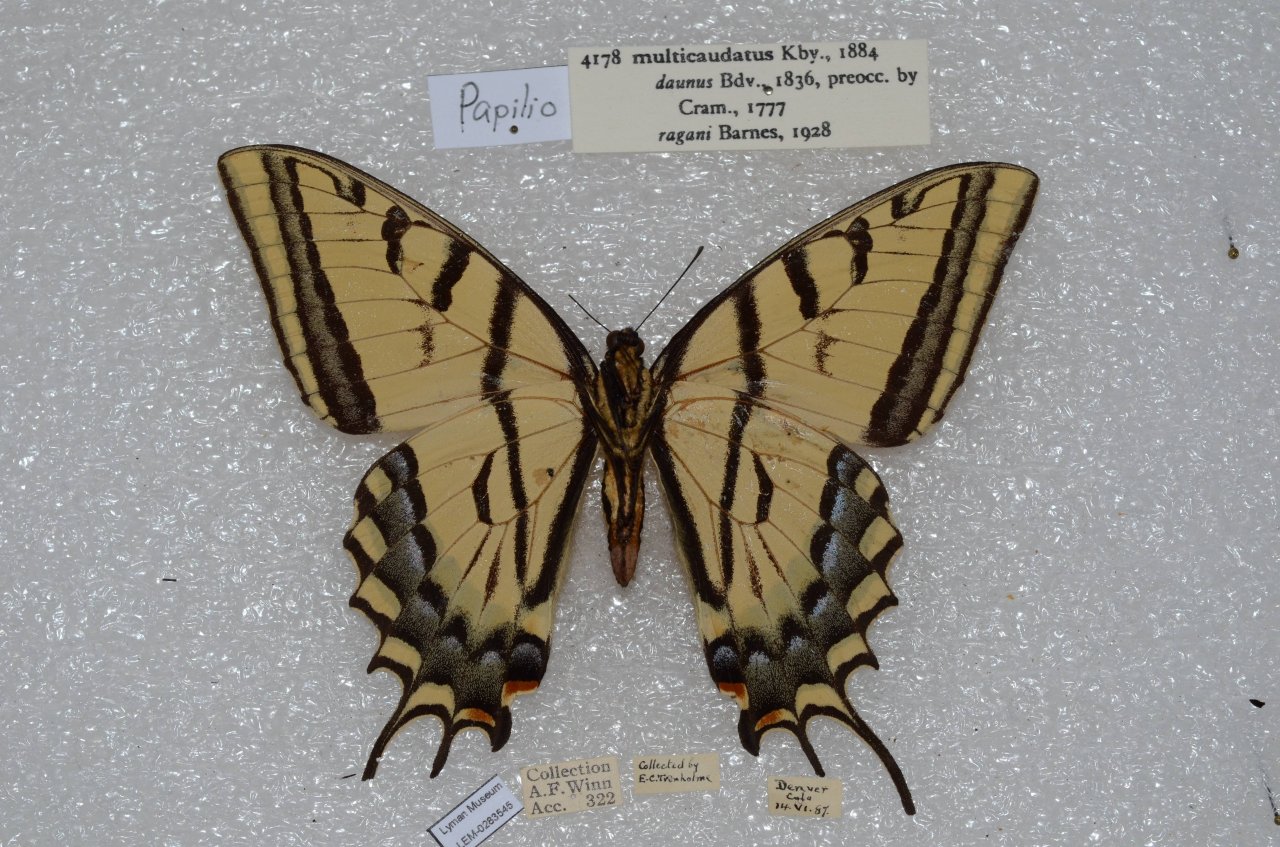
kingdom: Animalia
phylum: Arthropoda
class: Insecta
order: Lepidoptera
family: Papilionidae
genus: Papilio
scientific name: Papilio multicaudata
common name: Two-tailed Swallowtail
